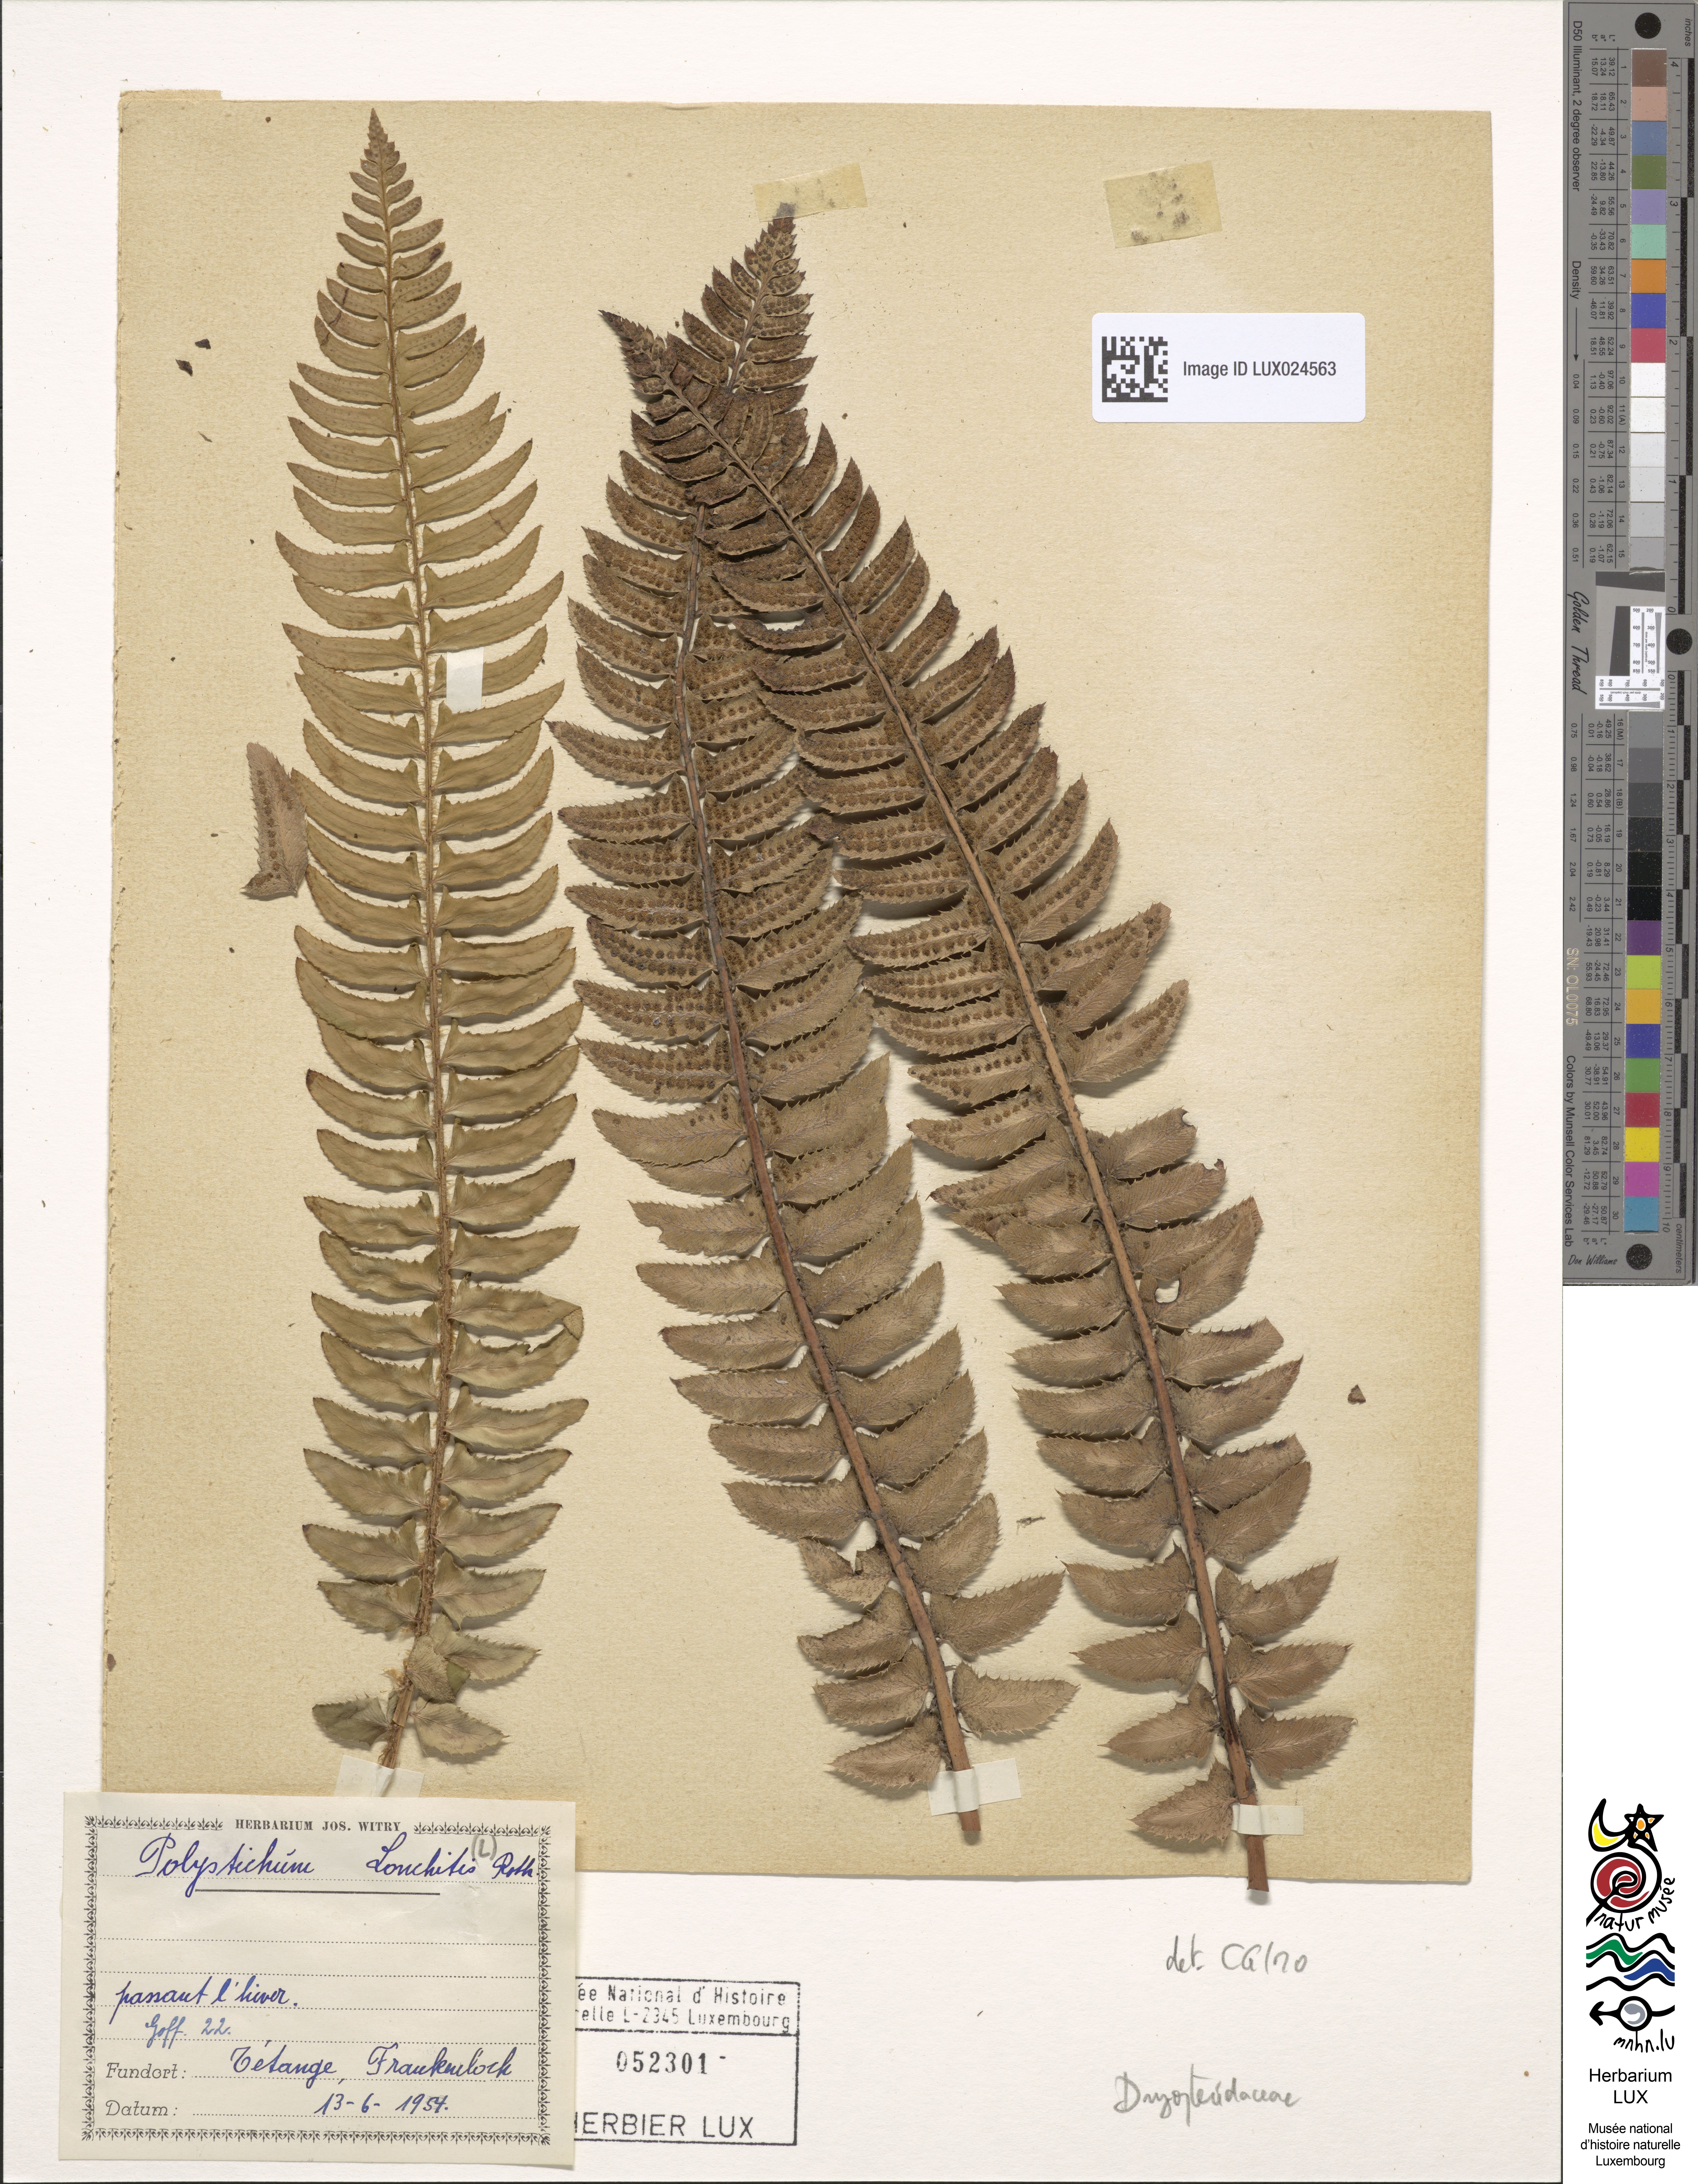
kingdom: Plantae
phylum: Tracheophyta
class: Polypodiopsida
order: Polypodiales
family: Dryopteridaceae
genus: Polystichum
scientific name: Polystichum lonchitis
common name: Holly fern
